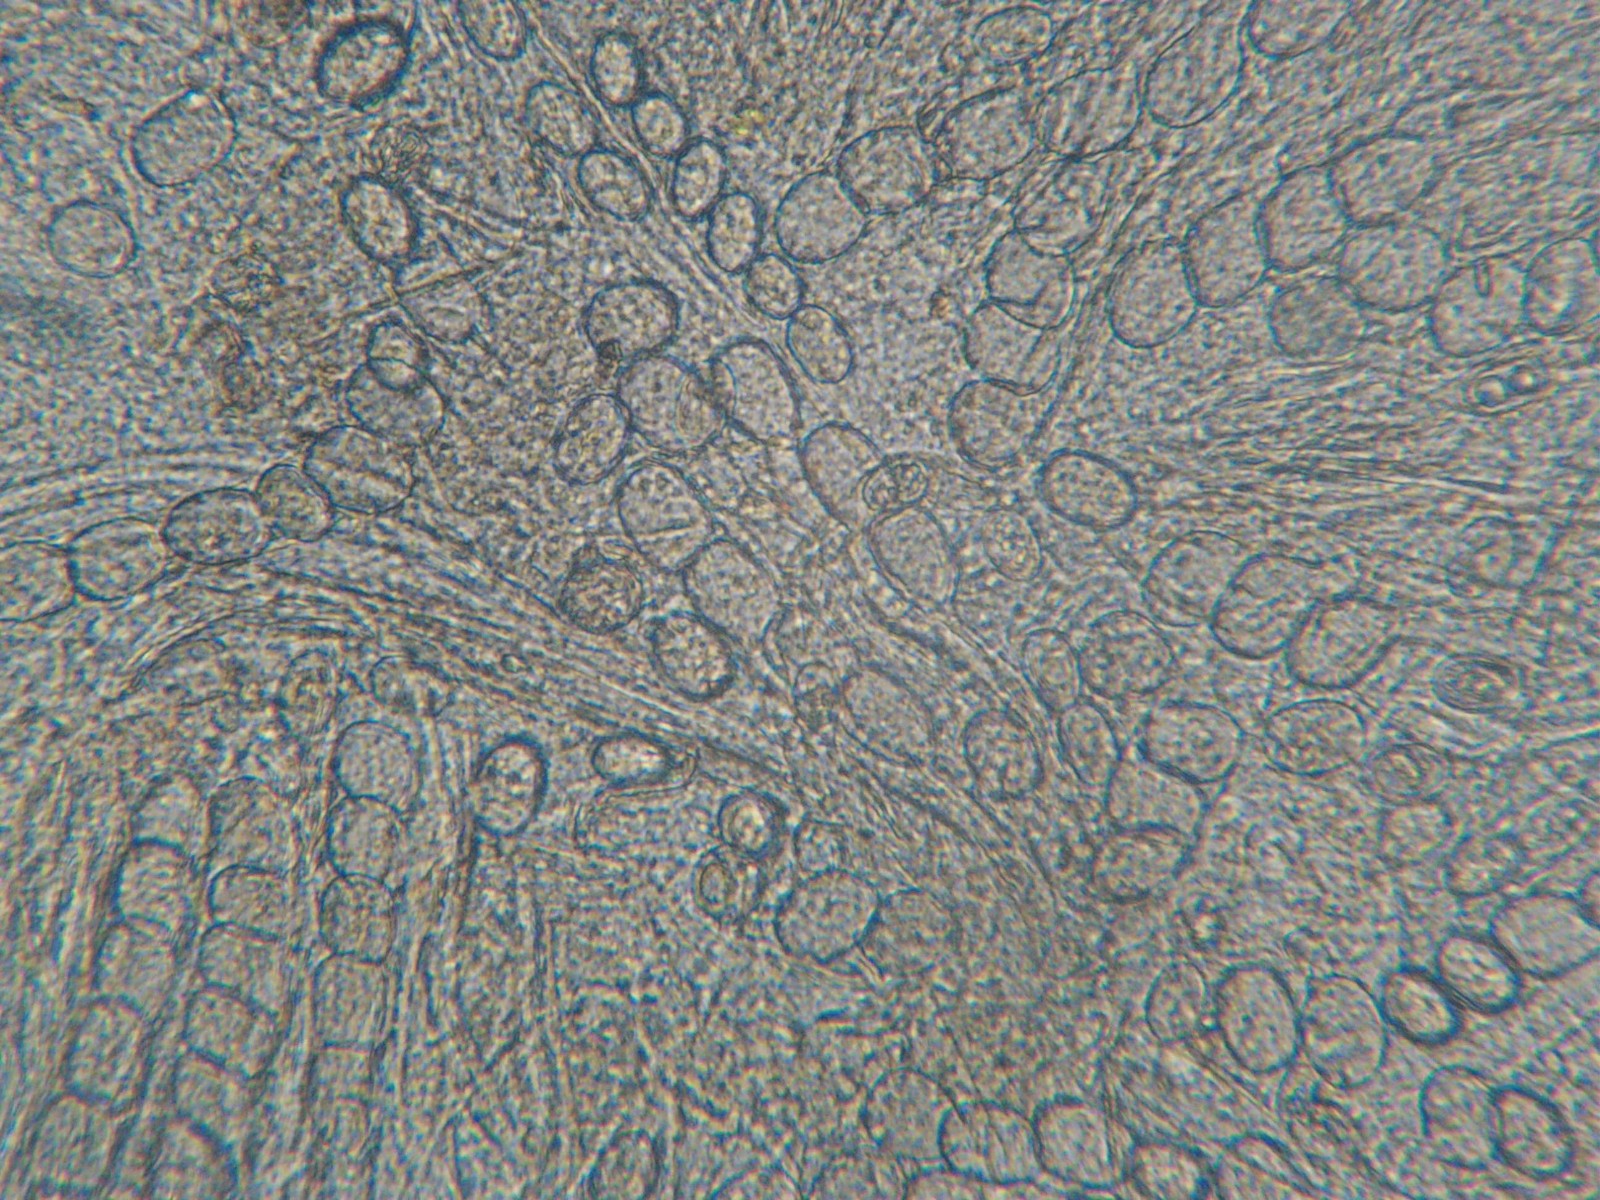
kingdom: Fungi
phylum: Ascomycota
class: Pezizomycetes
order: Pezizales
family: Pyronemataceae
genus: Scutellinia
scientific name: Scutellinia scutellata
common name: frynset skjoldbæger
